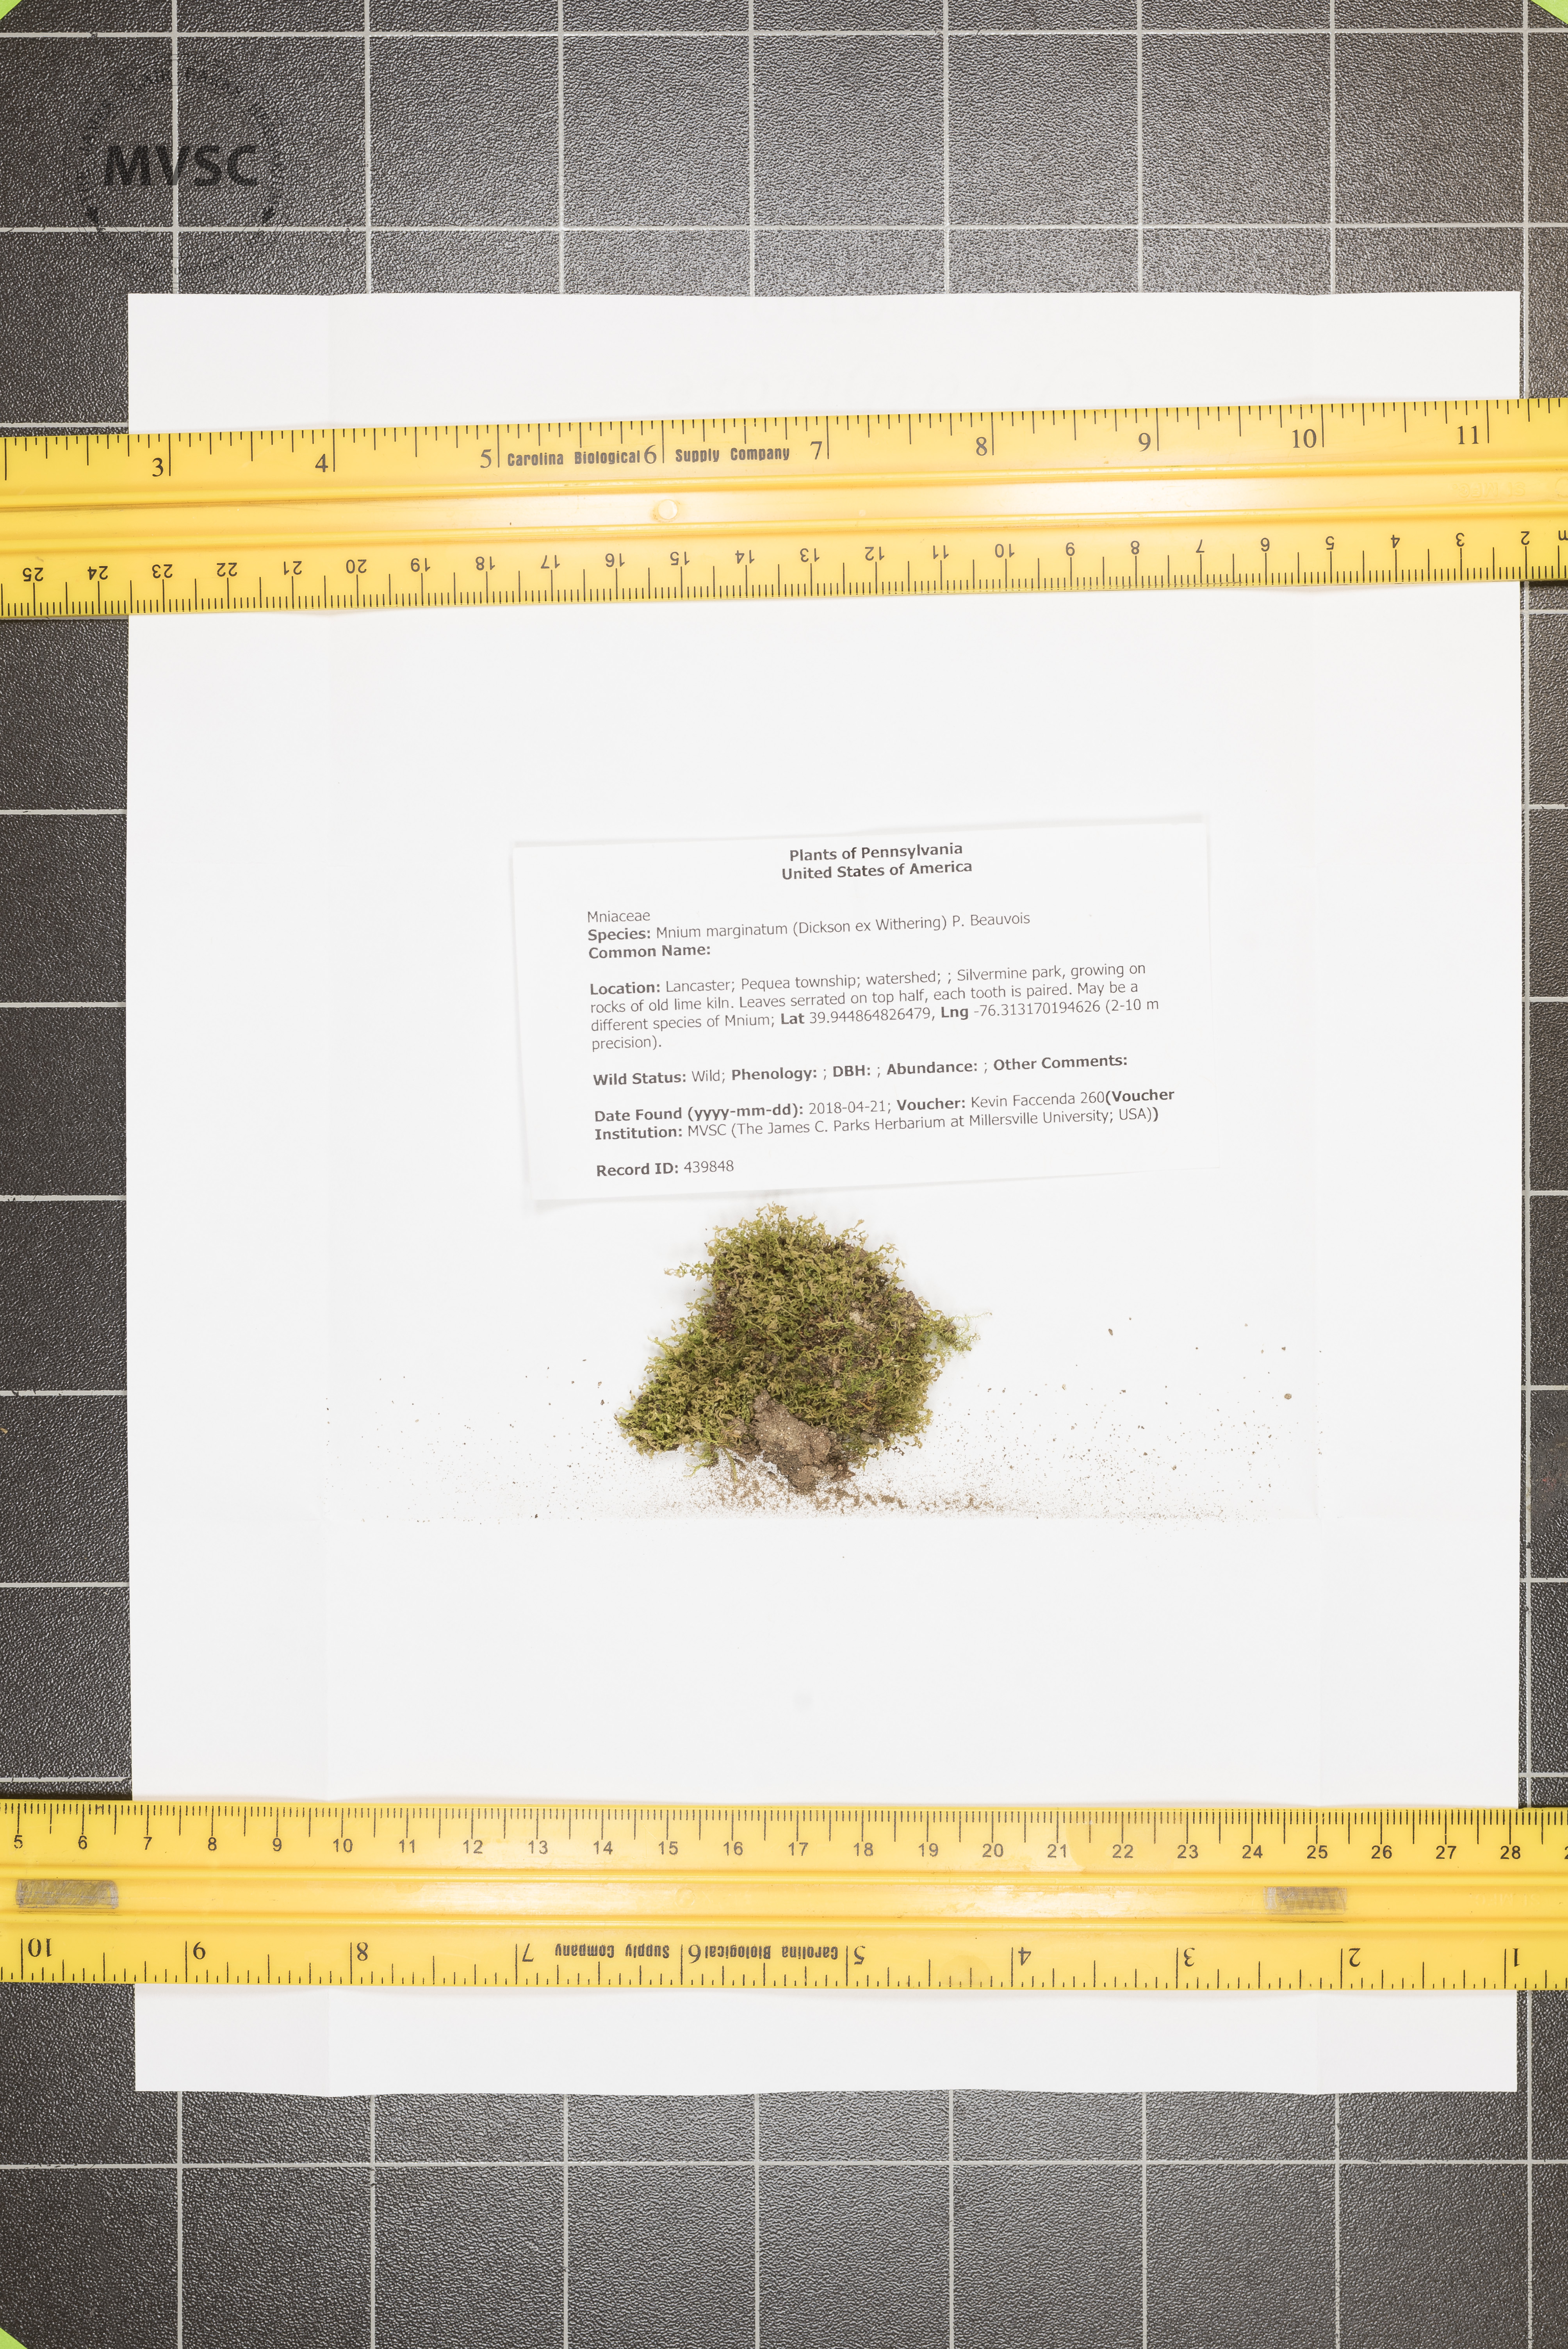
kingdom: Plantae
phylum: Bryophyta
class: Bryopsida
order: Bryales
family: Mniaceae
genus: Mnium
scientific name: Mnium marginatum
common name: Bordered leafy moss
